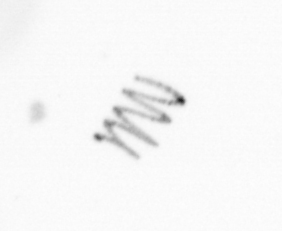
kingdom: Chromista
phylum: Ochrophyta
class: Bacillariophyceae
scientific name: Bacillariophyceae
